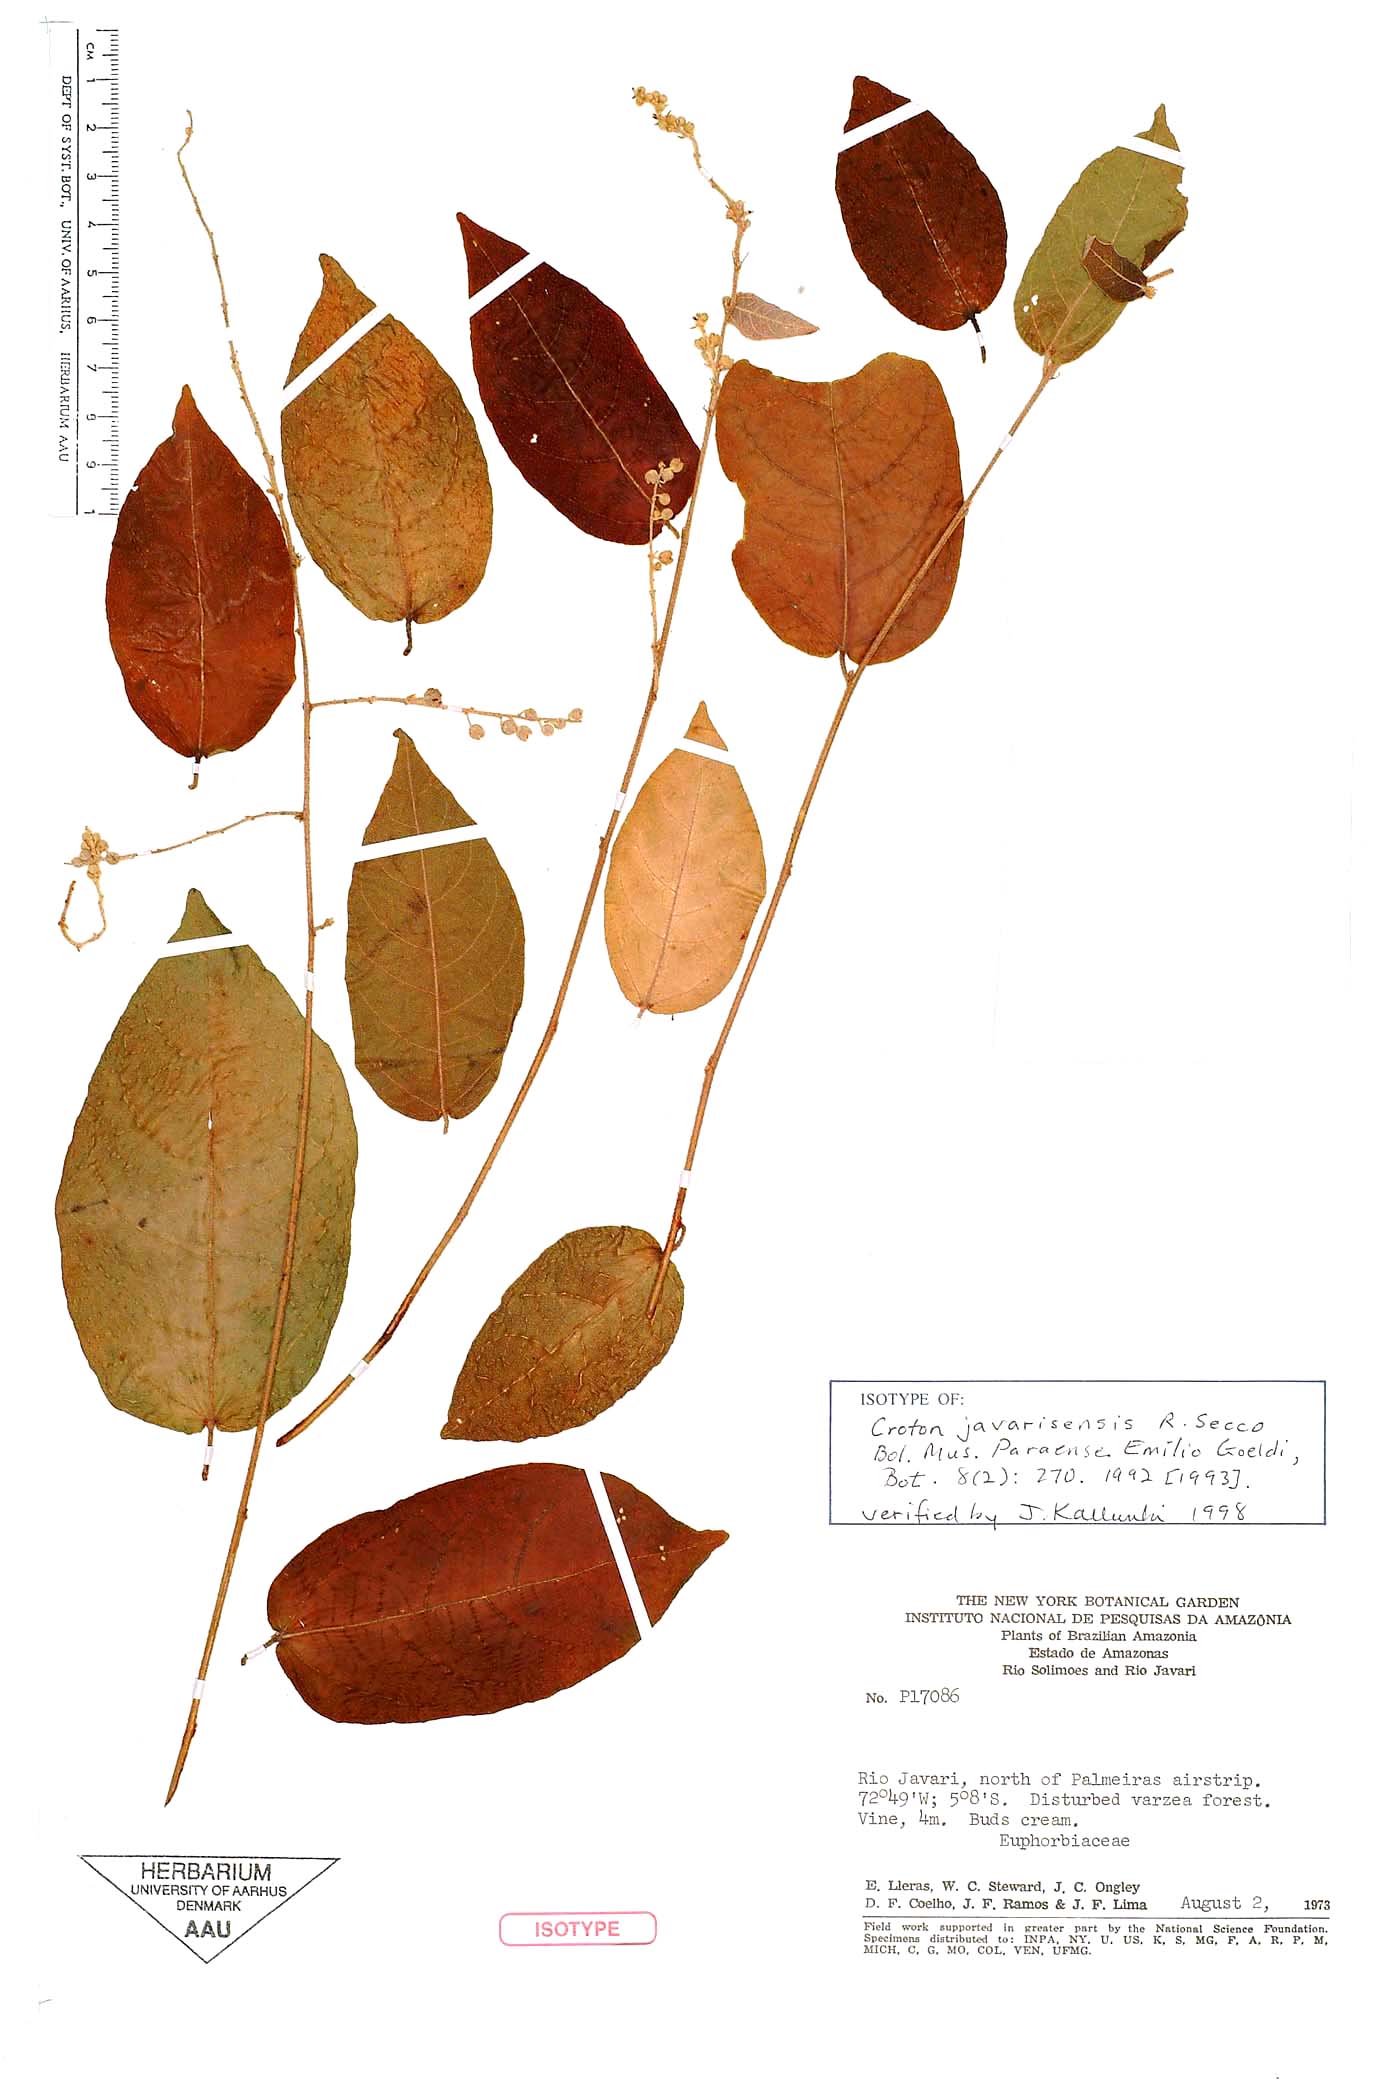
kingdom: Plantae
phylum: Tracheophyta
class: Magnoliopsida
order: Malpighiales
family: Euphorbiaceae
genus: Croton
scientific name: Croton javarisensis
